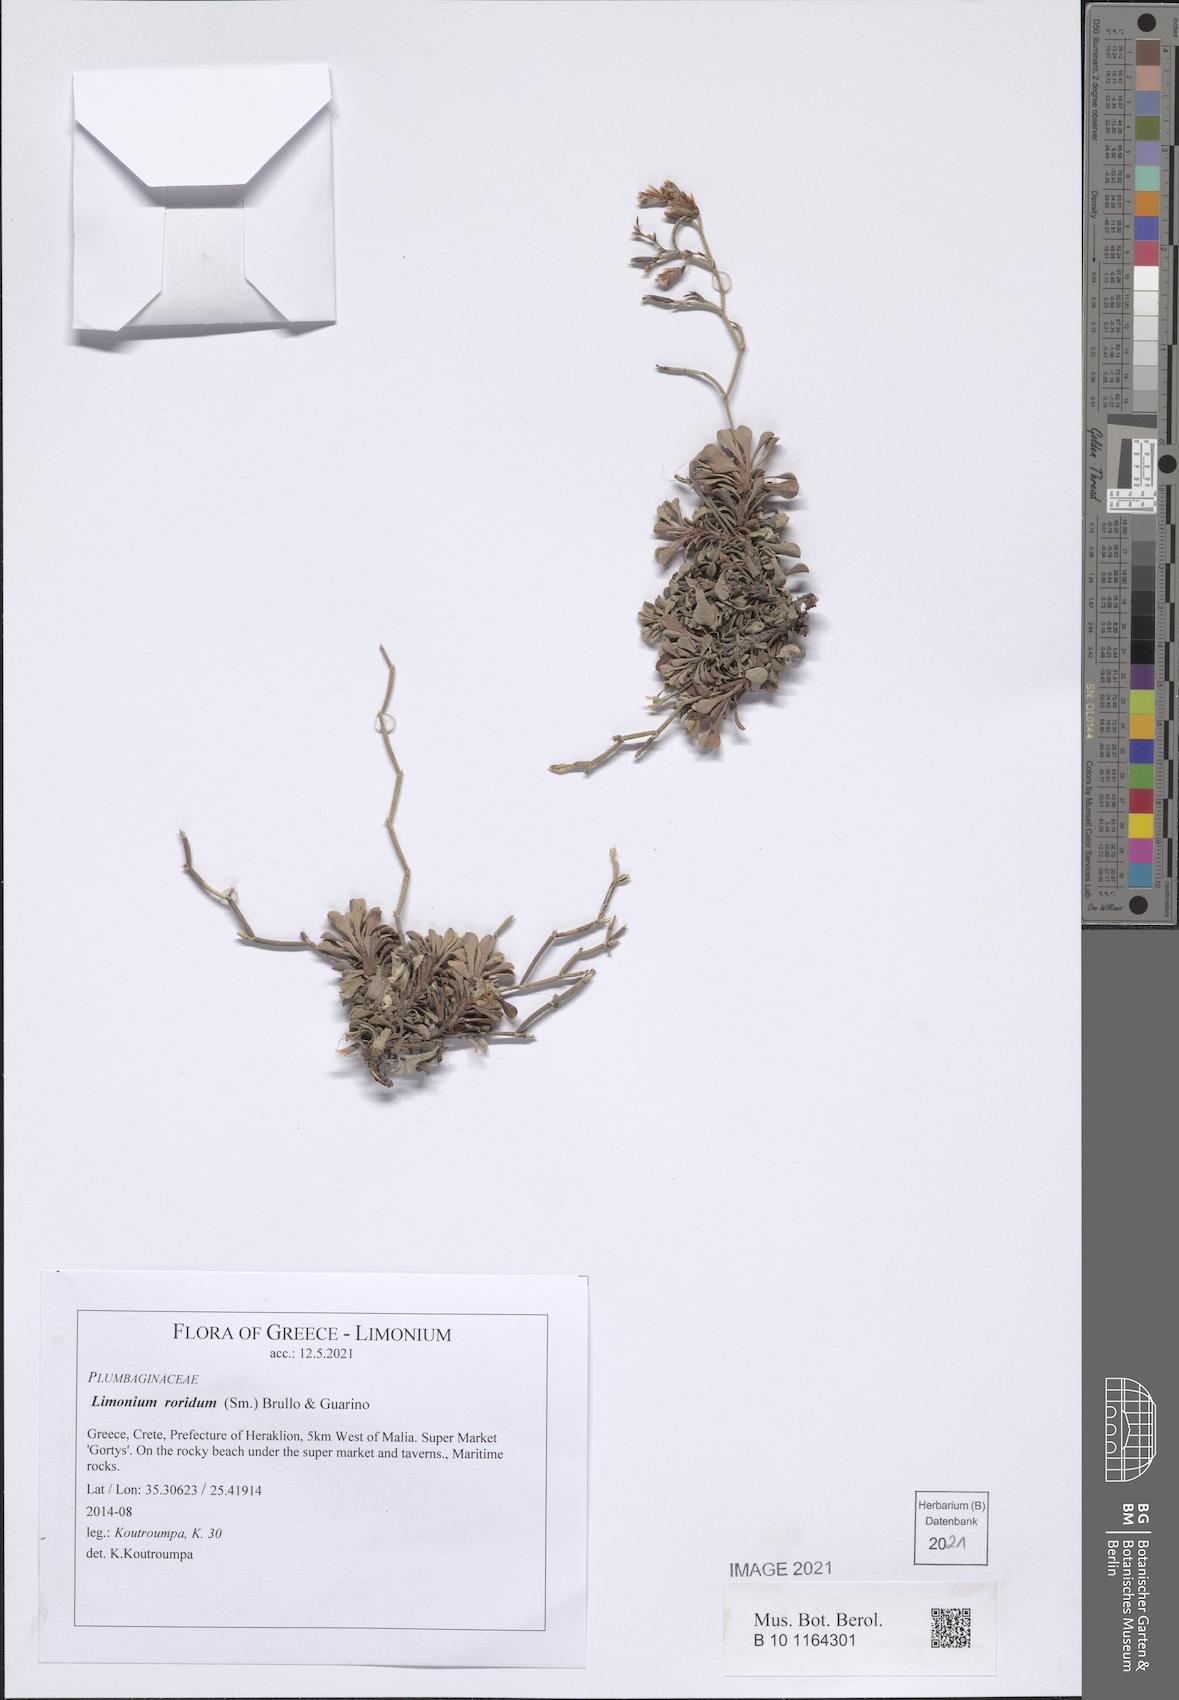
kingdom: Plantae
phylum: Tracheophyta
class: Magnoliopsida
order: Caryophyllales
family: Plumbaginaceae
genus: Limonium
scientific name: Limonium roridum
